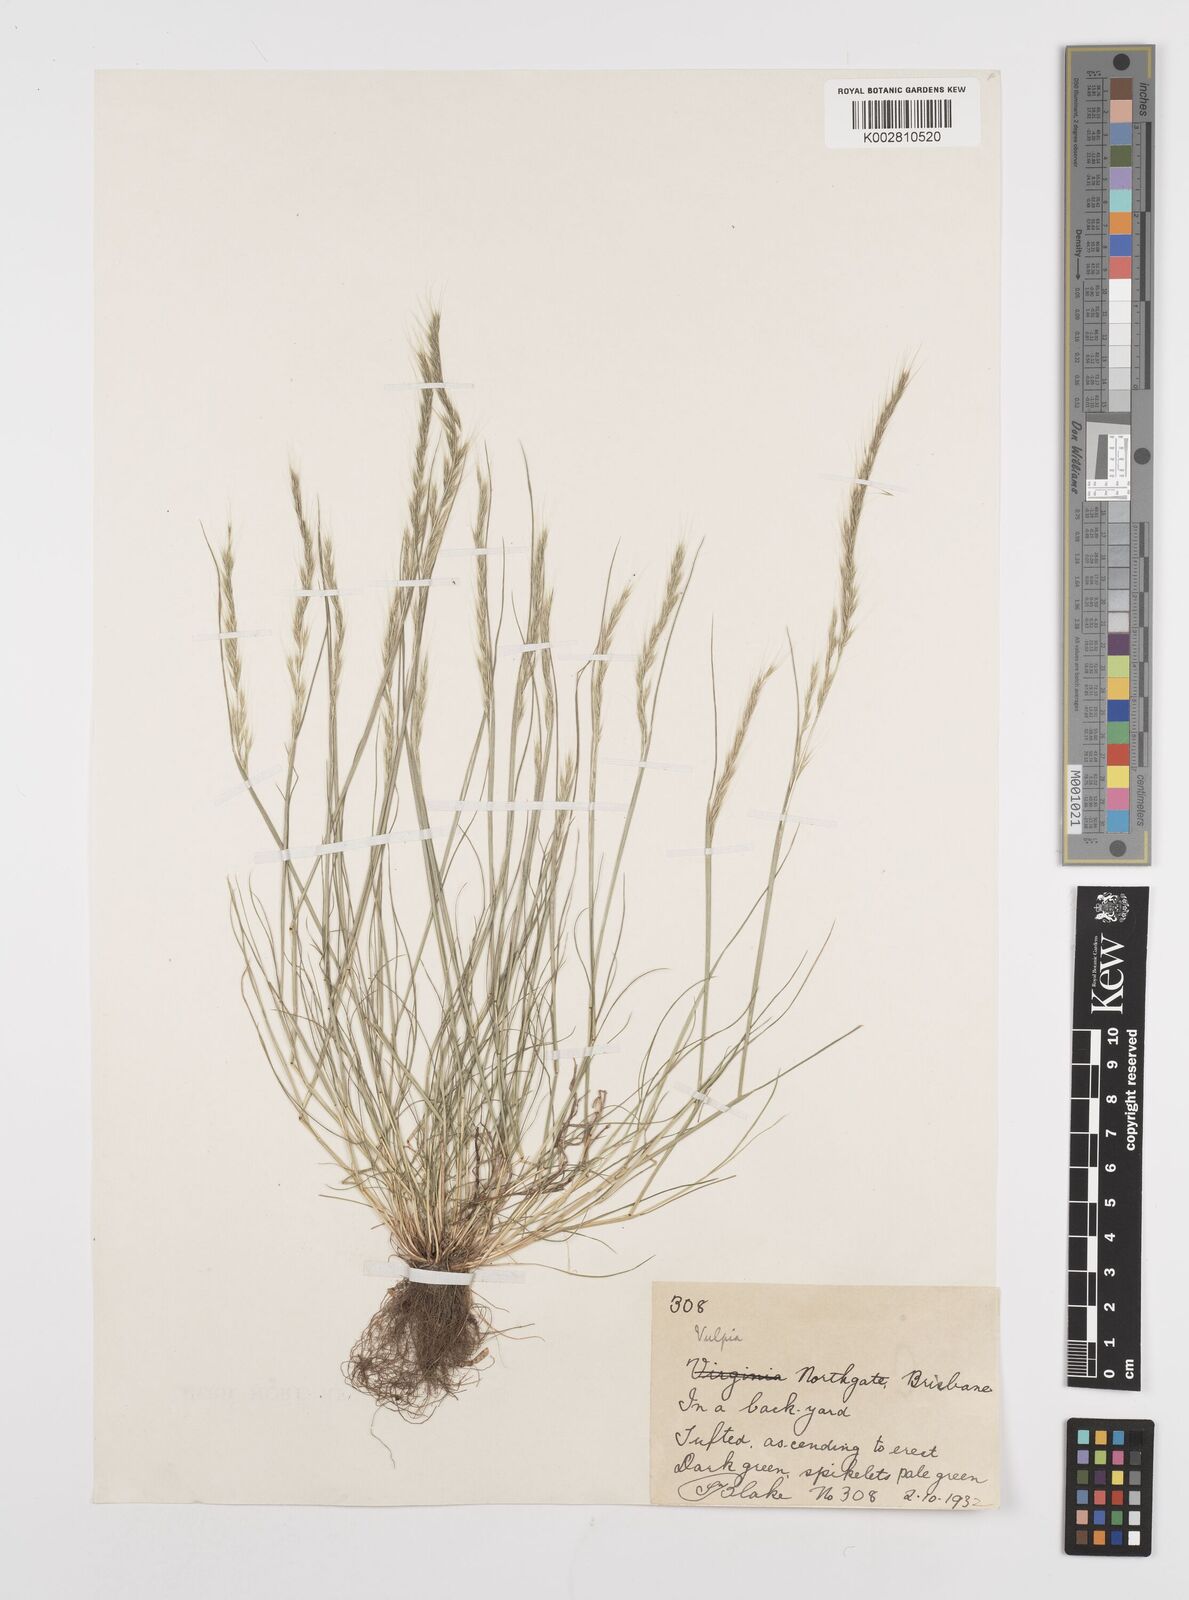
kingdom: Plantae
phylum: Tracheophyta
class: Liliopsida
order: Poales
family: Poaceae
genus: Festuca
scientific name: Festuca myuros
